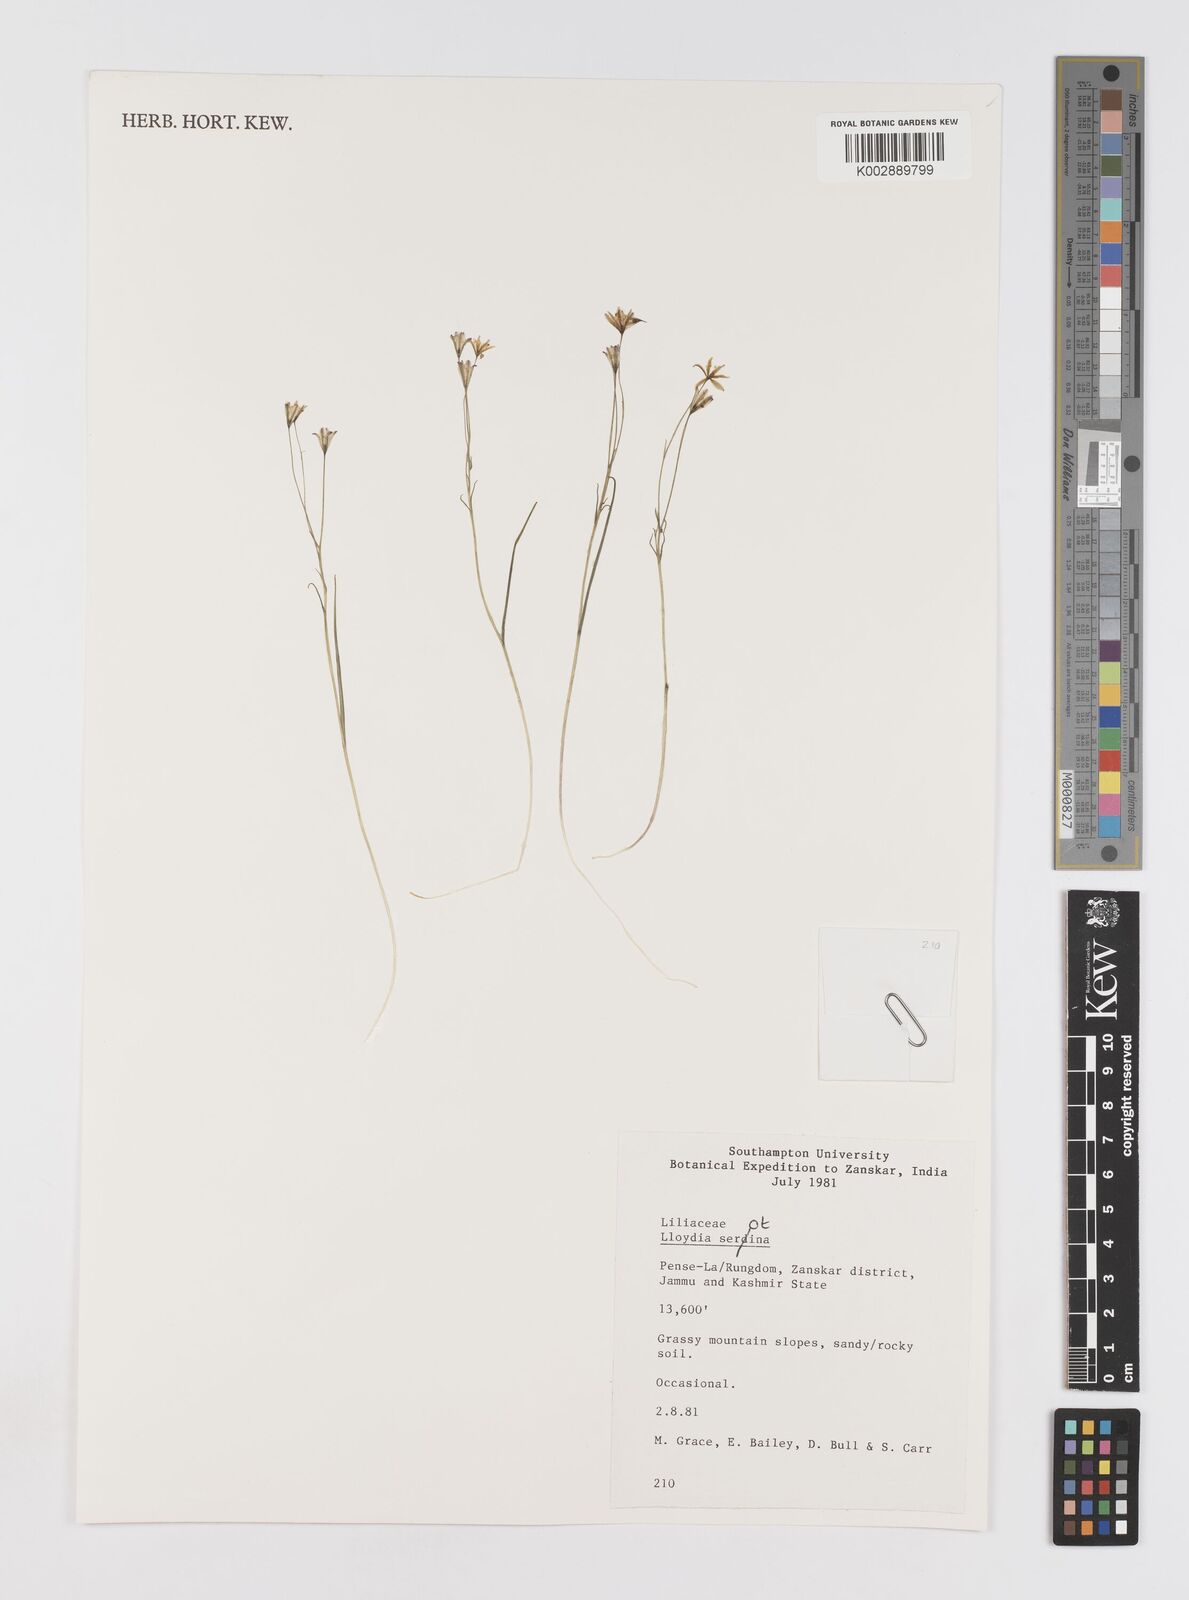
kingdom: Plantae
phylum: Tracheophyta
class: Liliopsida
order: Liliales
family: Liliaceae
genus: Gagea
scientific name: Gagea serotina
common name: Snowdon lily
